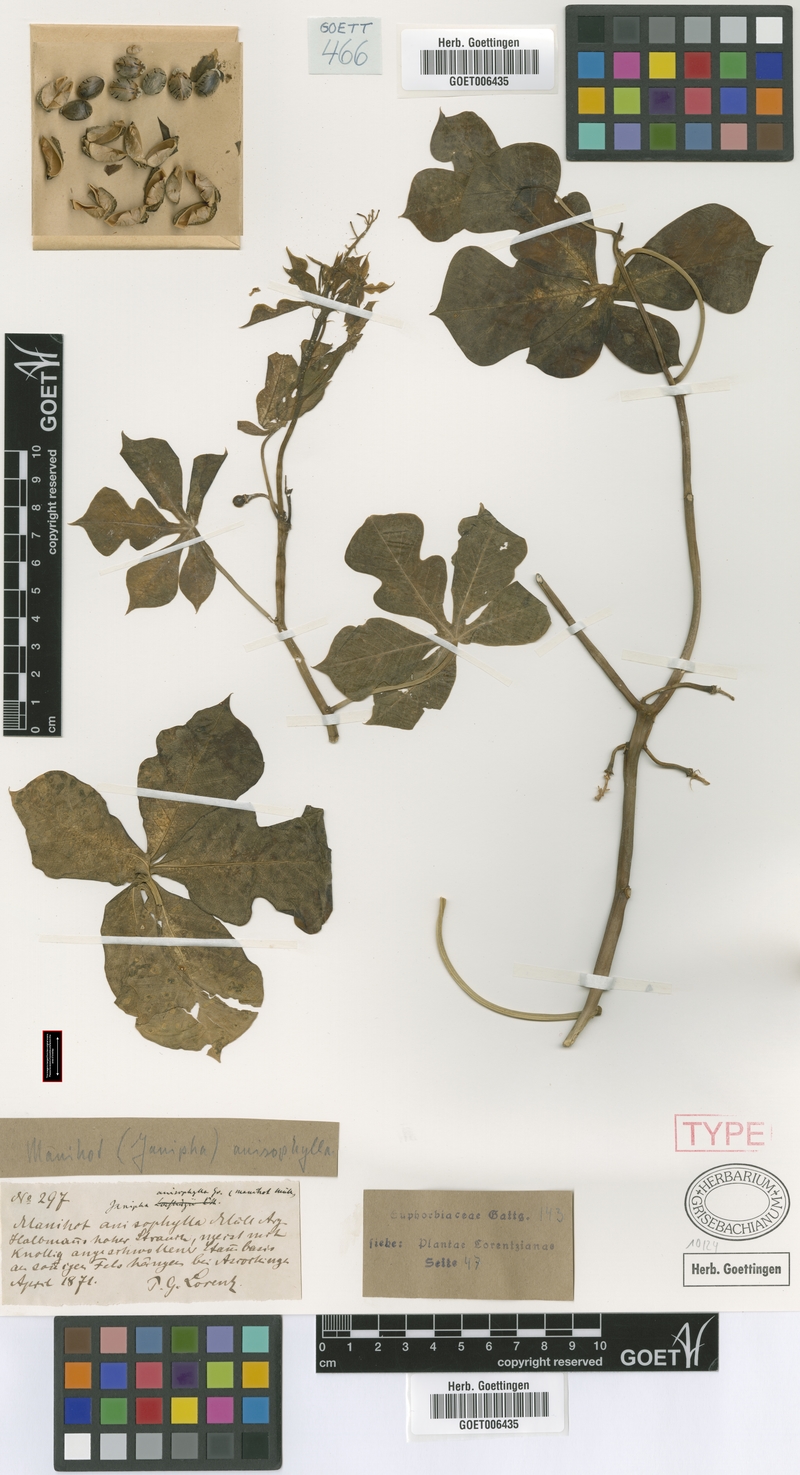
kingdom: Plantae
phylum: Tracheophyta
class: Magnoliopsida
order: Malpighiales
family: Euphorbiaceae
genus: Manihot
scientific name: Manihot anisophylla
